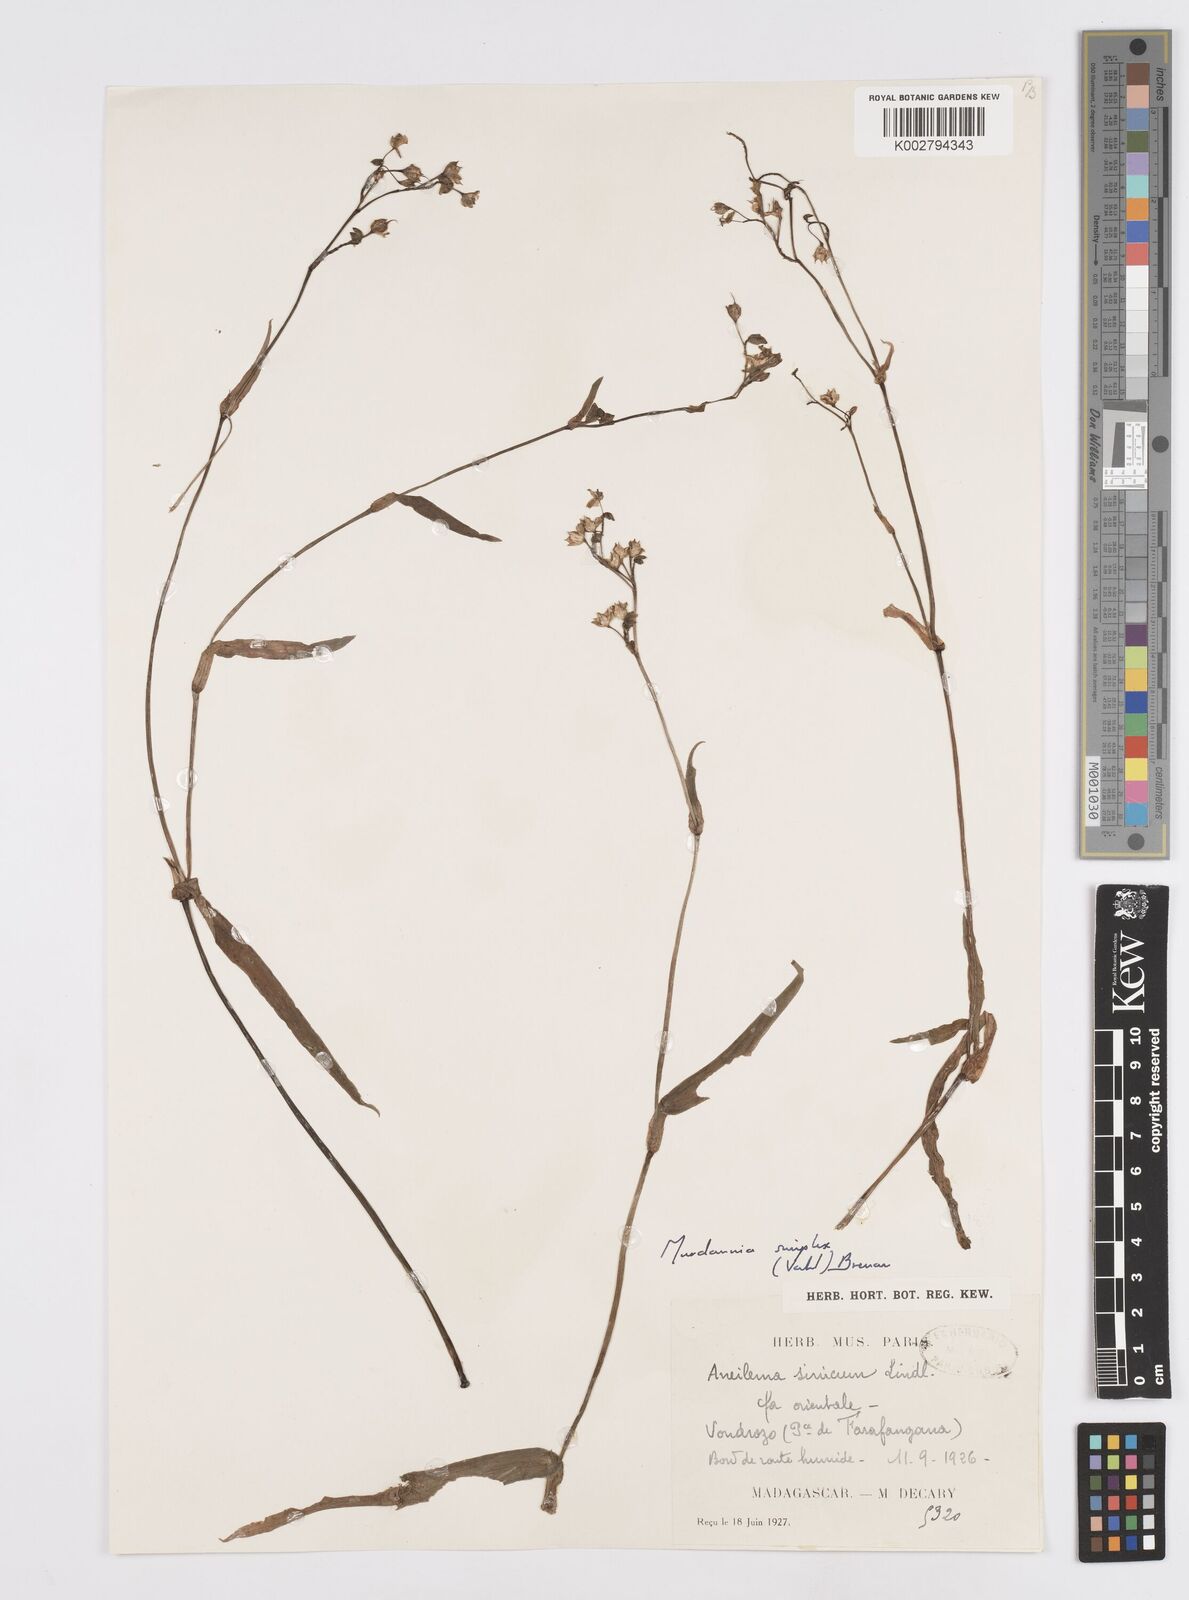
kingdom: Plantae
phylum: Tracheophyta
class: Liliopsida
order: Commelinales
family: Commelinaceae
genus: Murdannia
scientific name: Murdannia simplex
